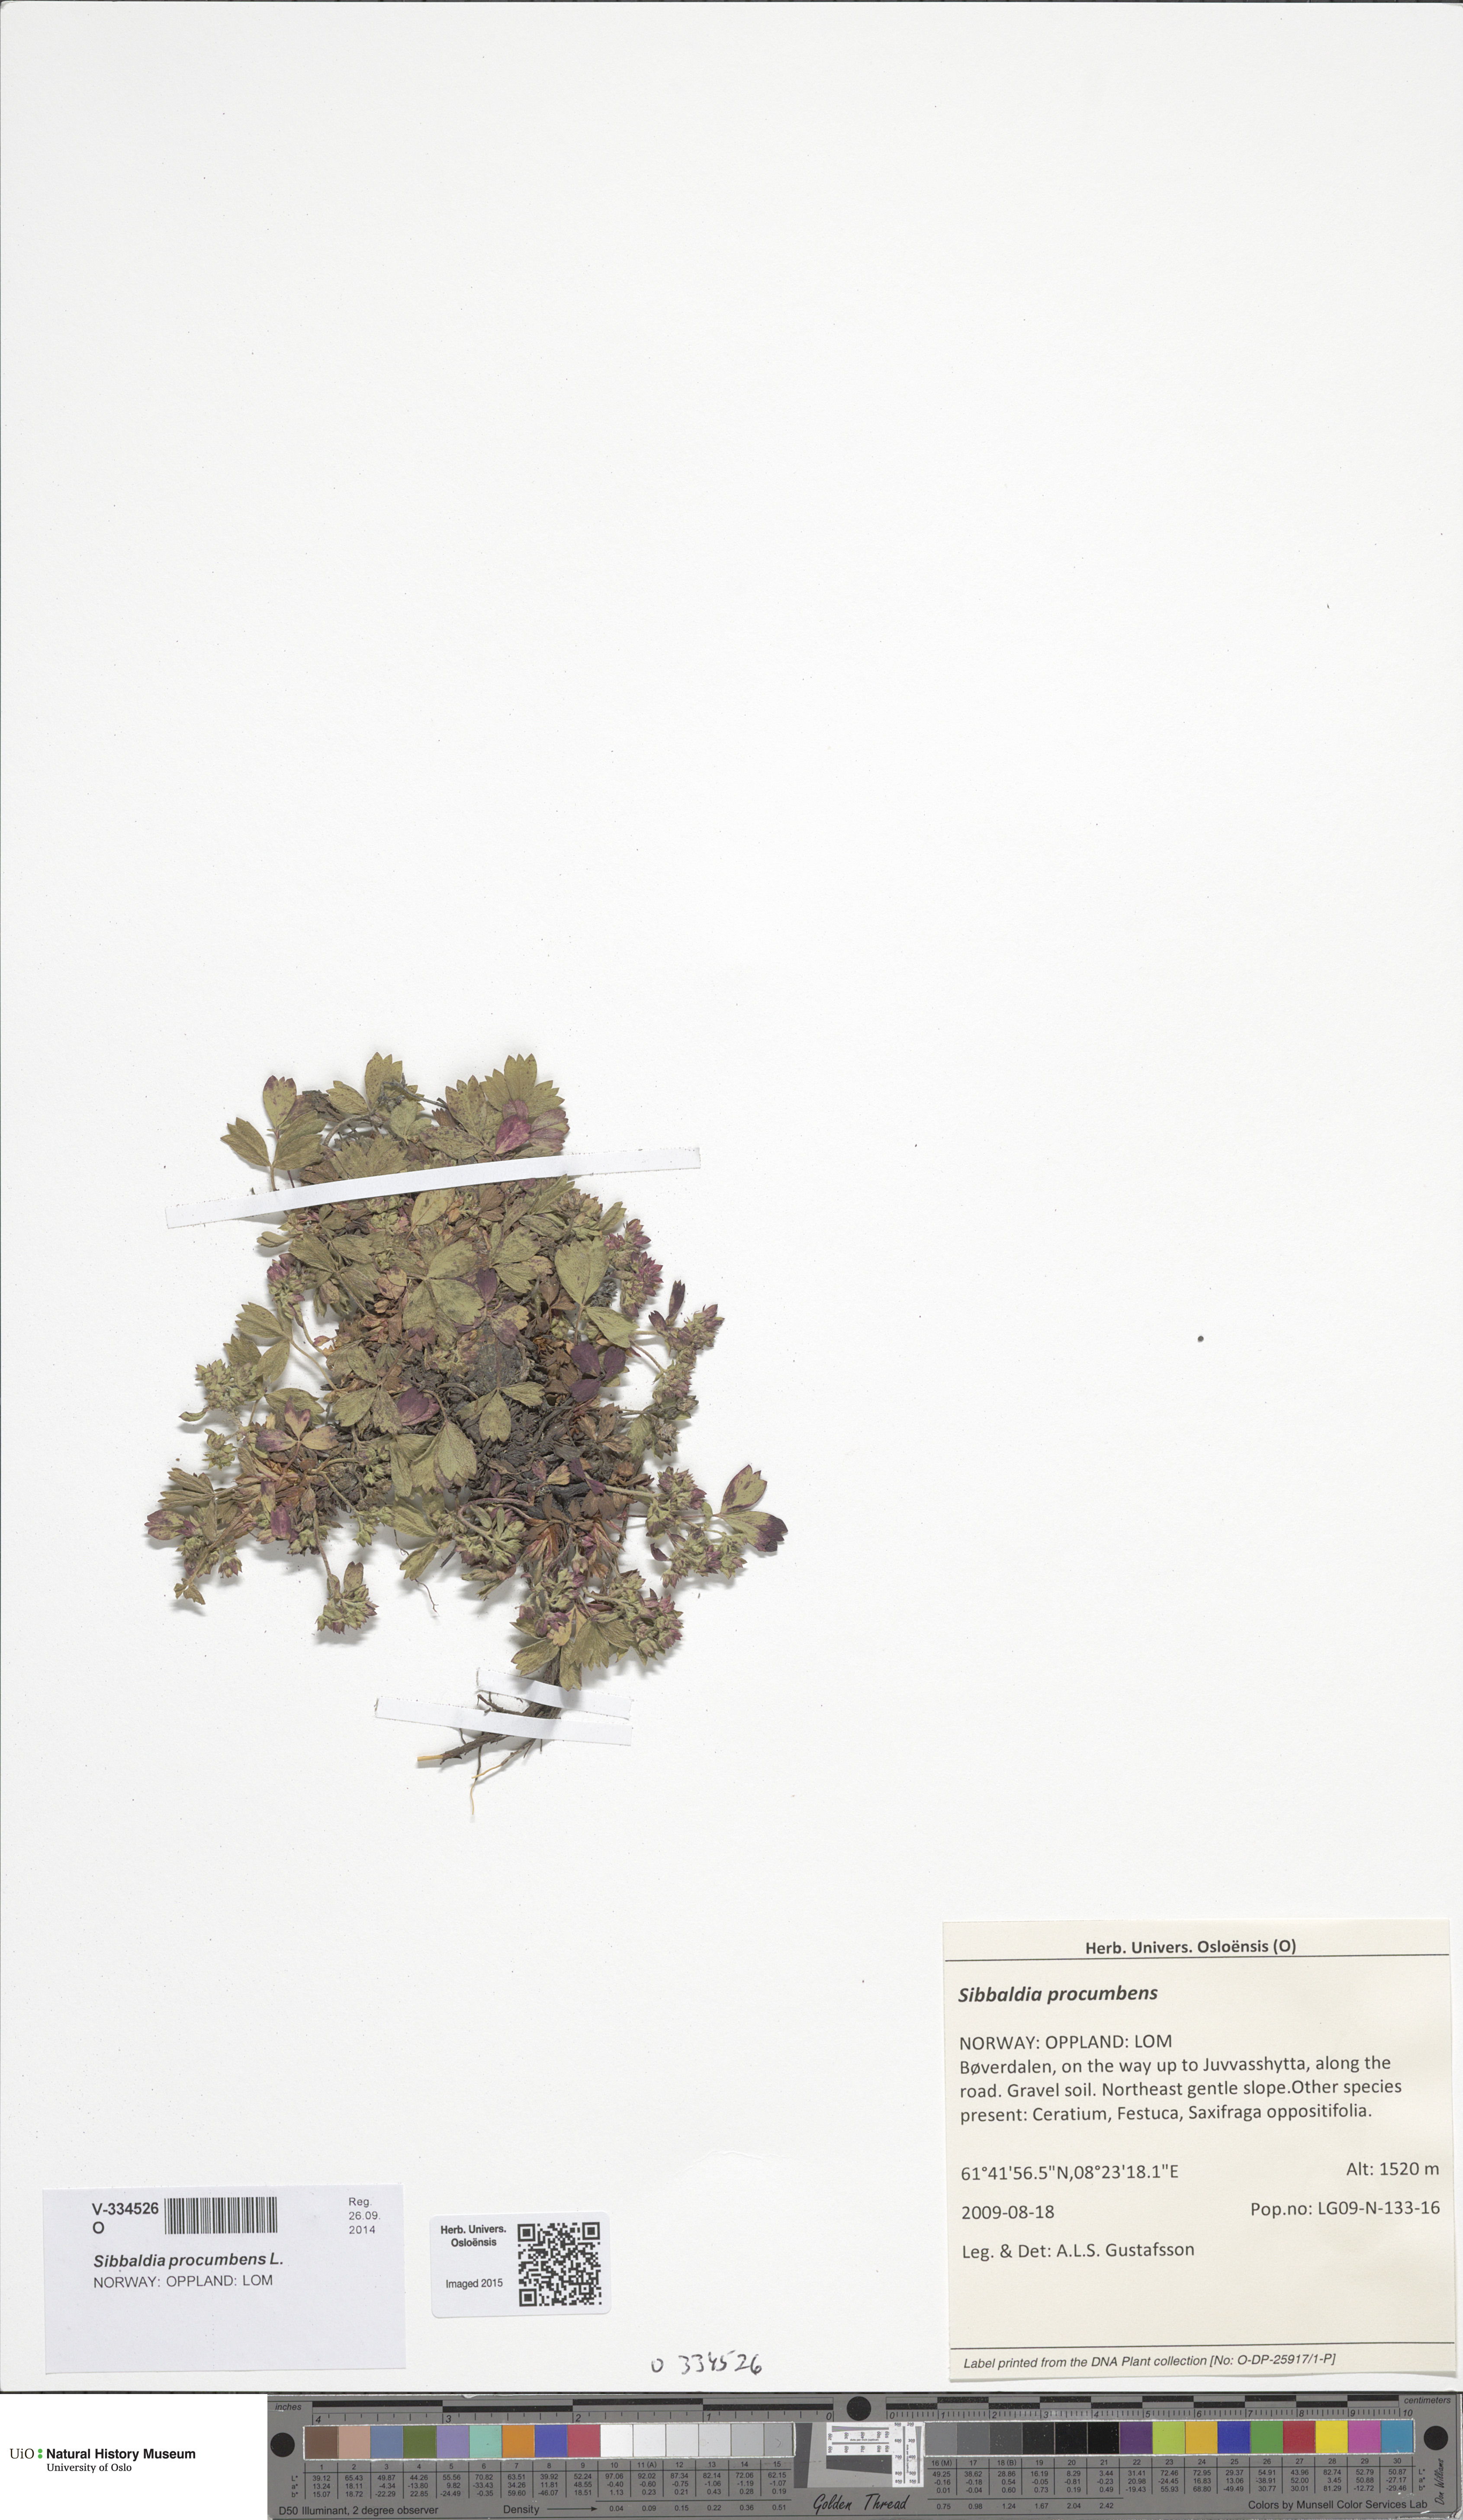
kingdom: Plantae
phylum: Tracheophyta
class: Magnoliopsida
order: Rosales
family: Rosaceae
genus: Sibbaldia
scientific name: Sibbaldia procumbens
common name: Creeping sibbaldia
